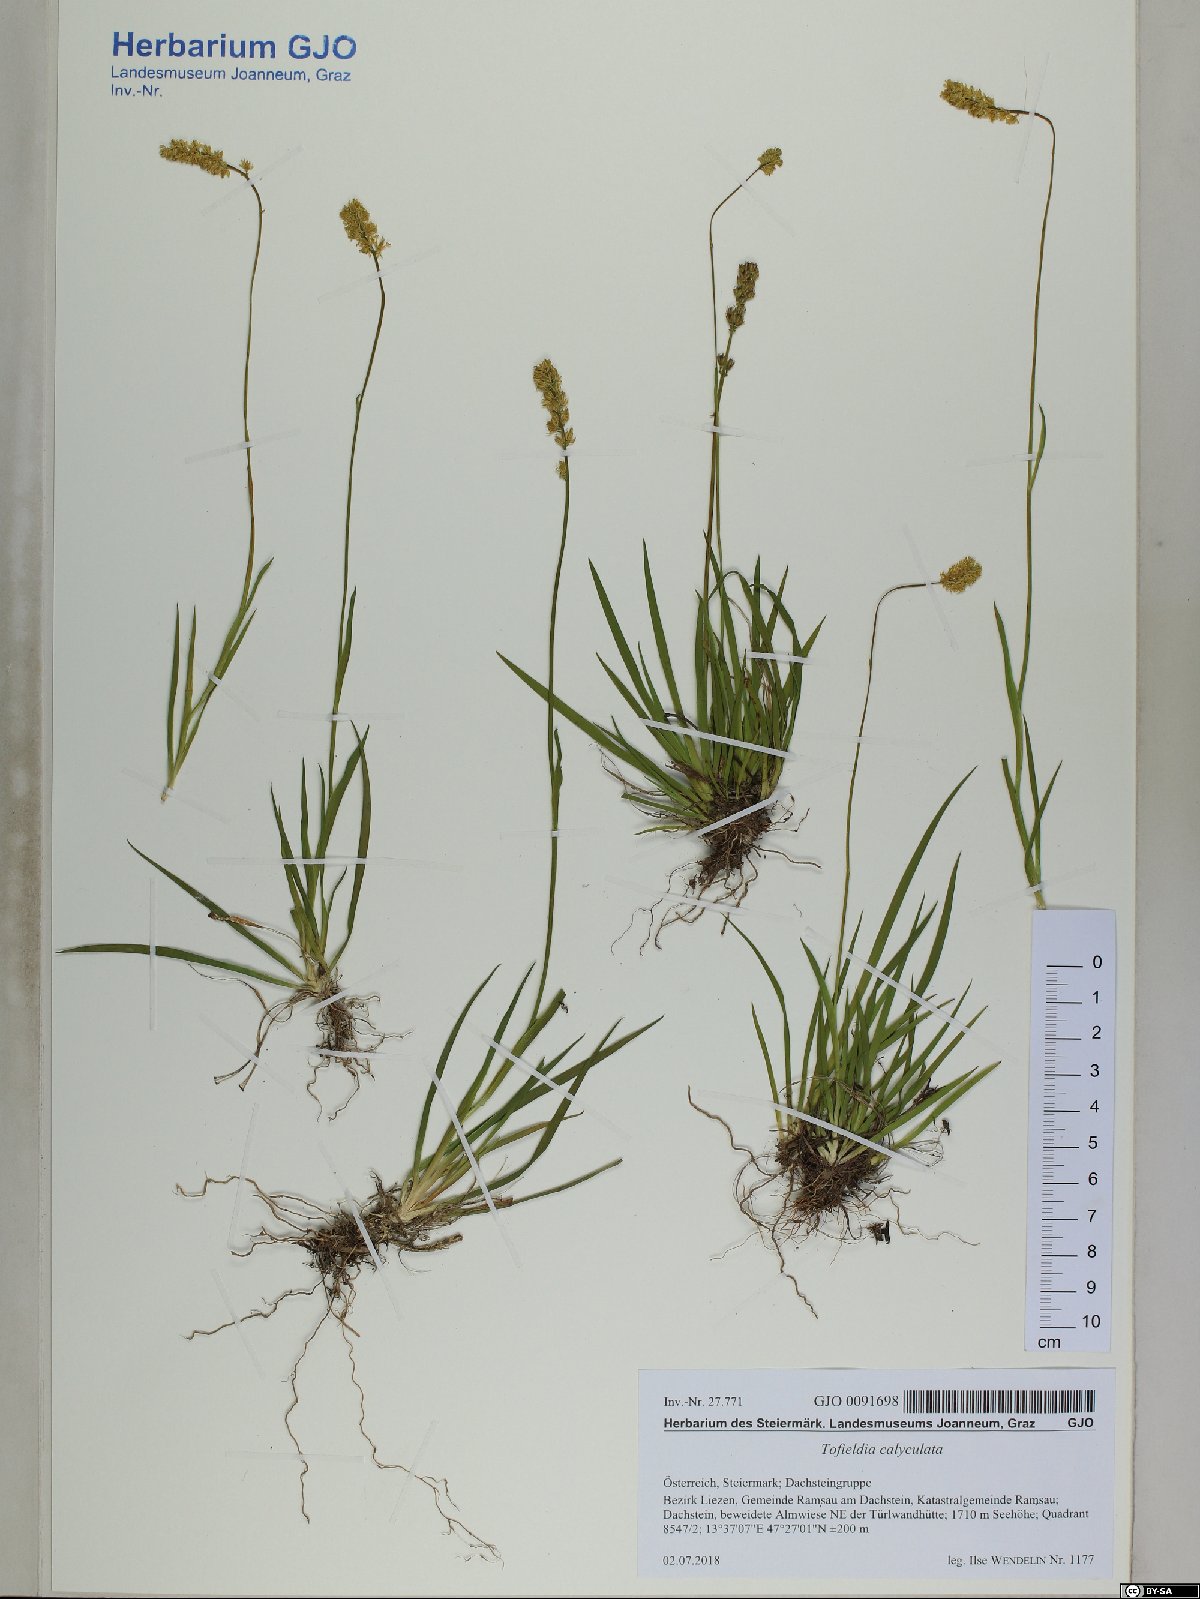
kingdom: Plantae
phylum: Tracheophyta
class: Liliopsida
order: Alismatales
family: Tofieldiaceae
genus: Tofieldia
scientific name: Tofieldia calyculata
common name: German-asphodel
